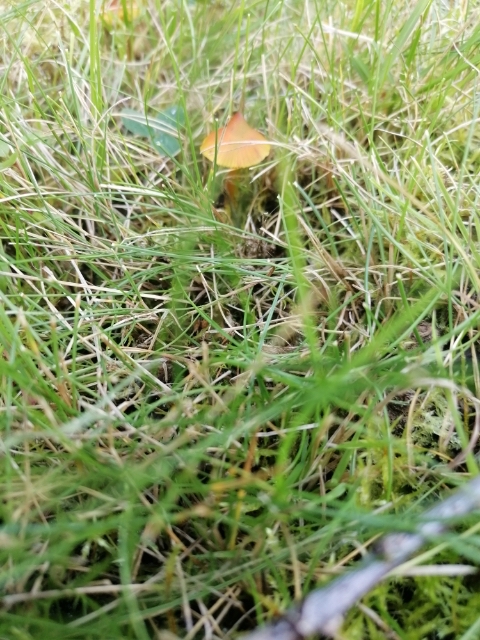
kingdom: Fungi
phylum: Basidiomycota
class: Agaricomycetes
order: Agaricales
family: Hygrophoraceae
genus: Hygrocybe
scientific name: Hygrocybe conica
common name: kegle-vokshat
